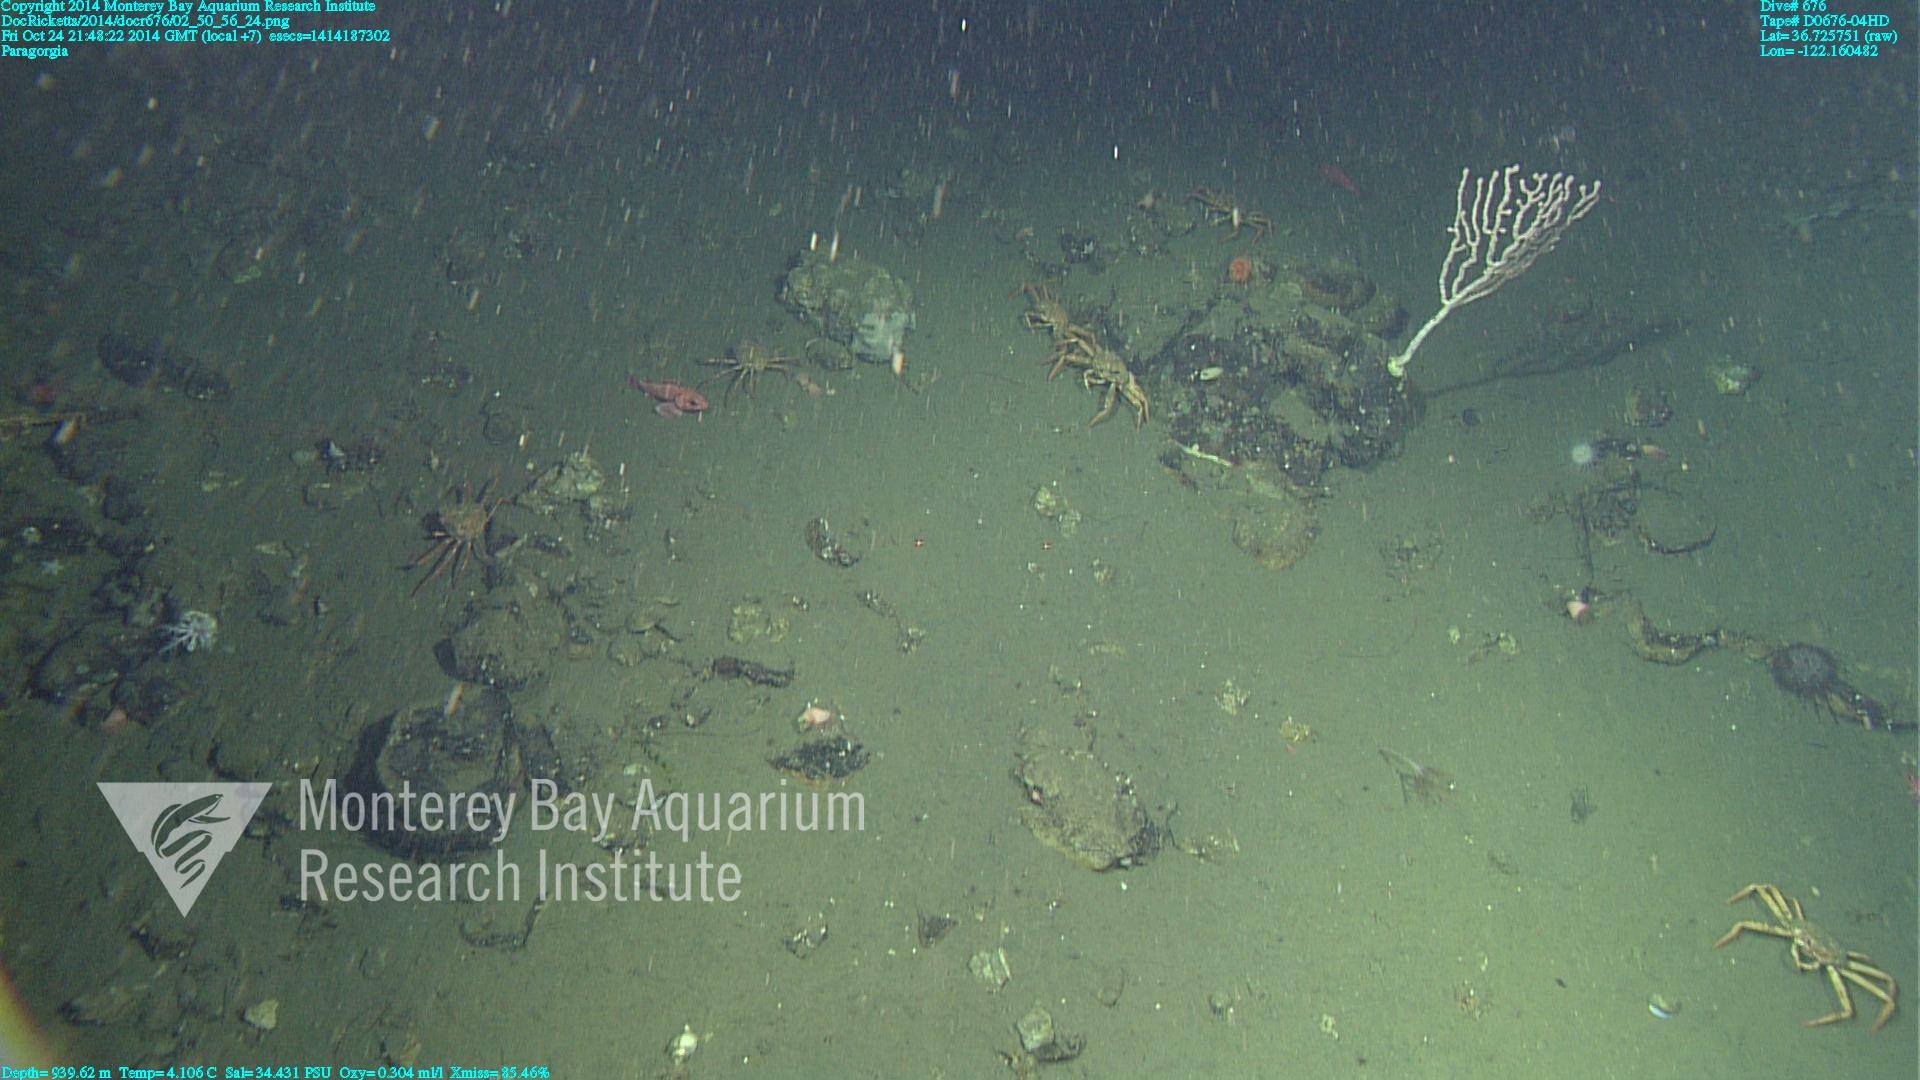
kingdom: Animalia
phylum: Cnidaria
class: Anthozoa
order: Scleralcyonacea
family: Coralliidae
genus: Paragorgia
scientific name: Paragorgia
